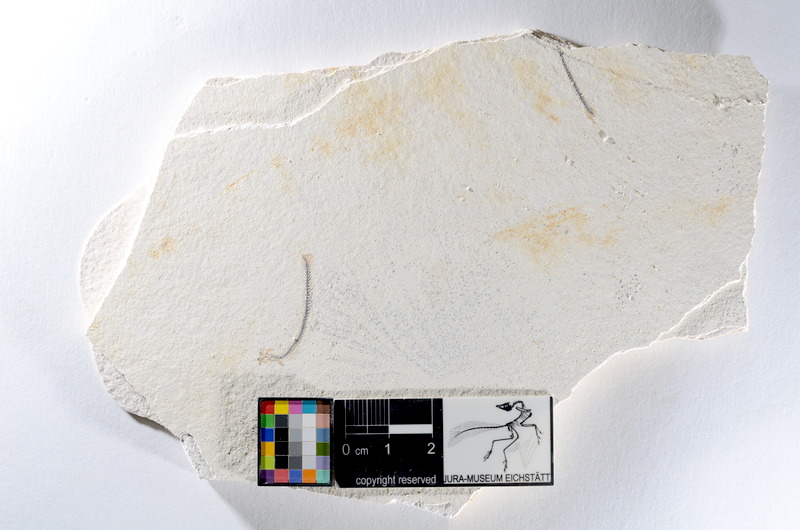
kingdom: Animalia
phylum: Chordata
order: Salmoniformes
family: Orthogonikleithridae
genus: Orthogonikleithrus
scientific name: Orthogonikleithrus hoelli
